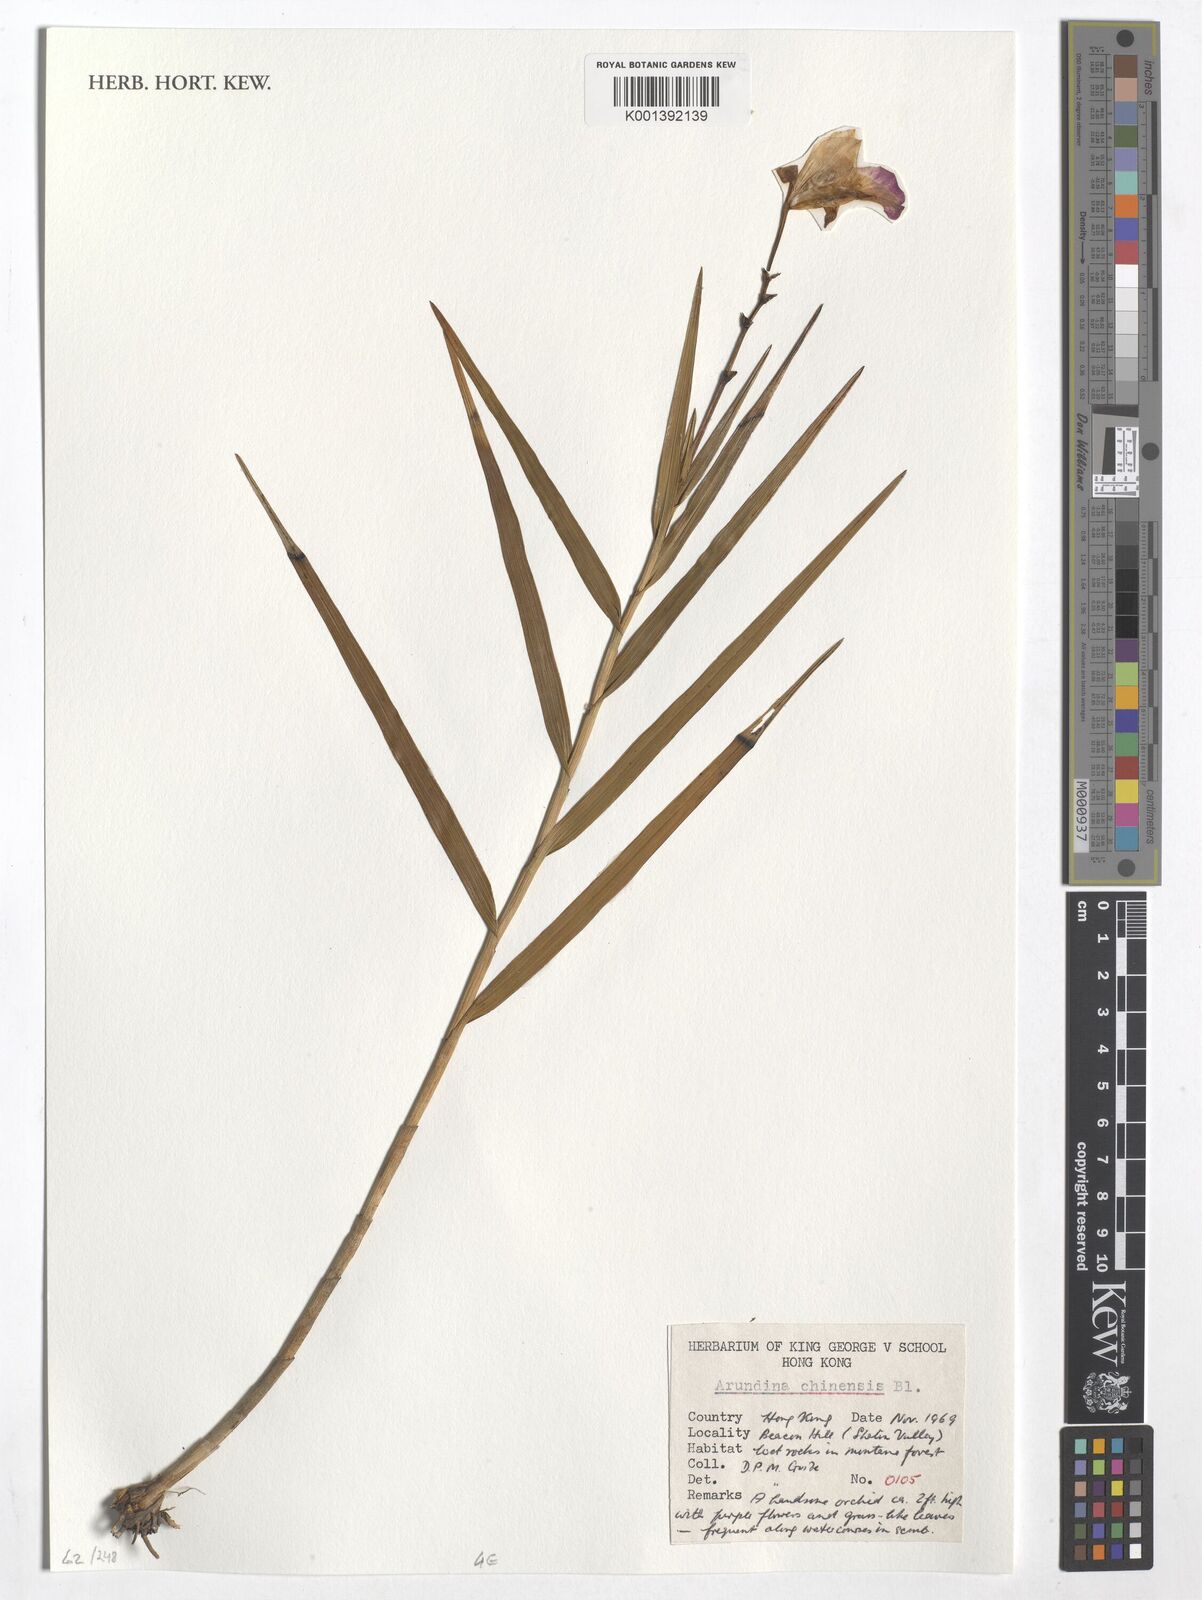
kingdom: Plantae
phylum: Tracheophyta
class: Liliopsida
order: Asparagales
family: Orchidaceae
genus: Arundina
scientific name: Arundina graminifolia
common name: Bamboo orchid
